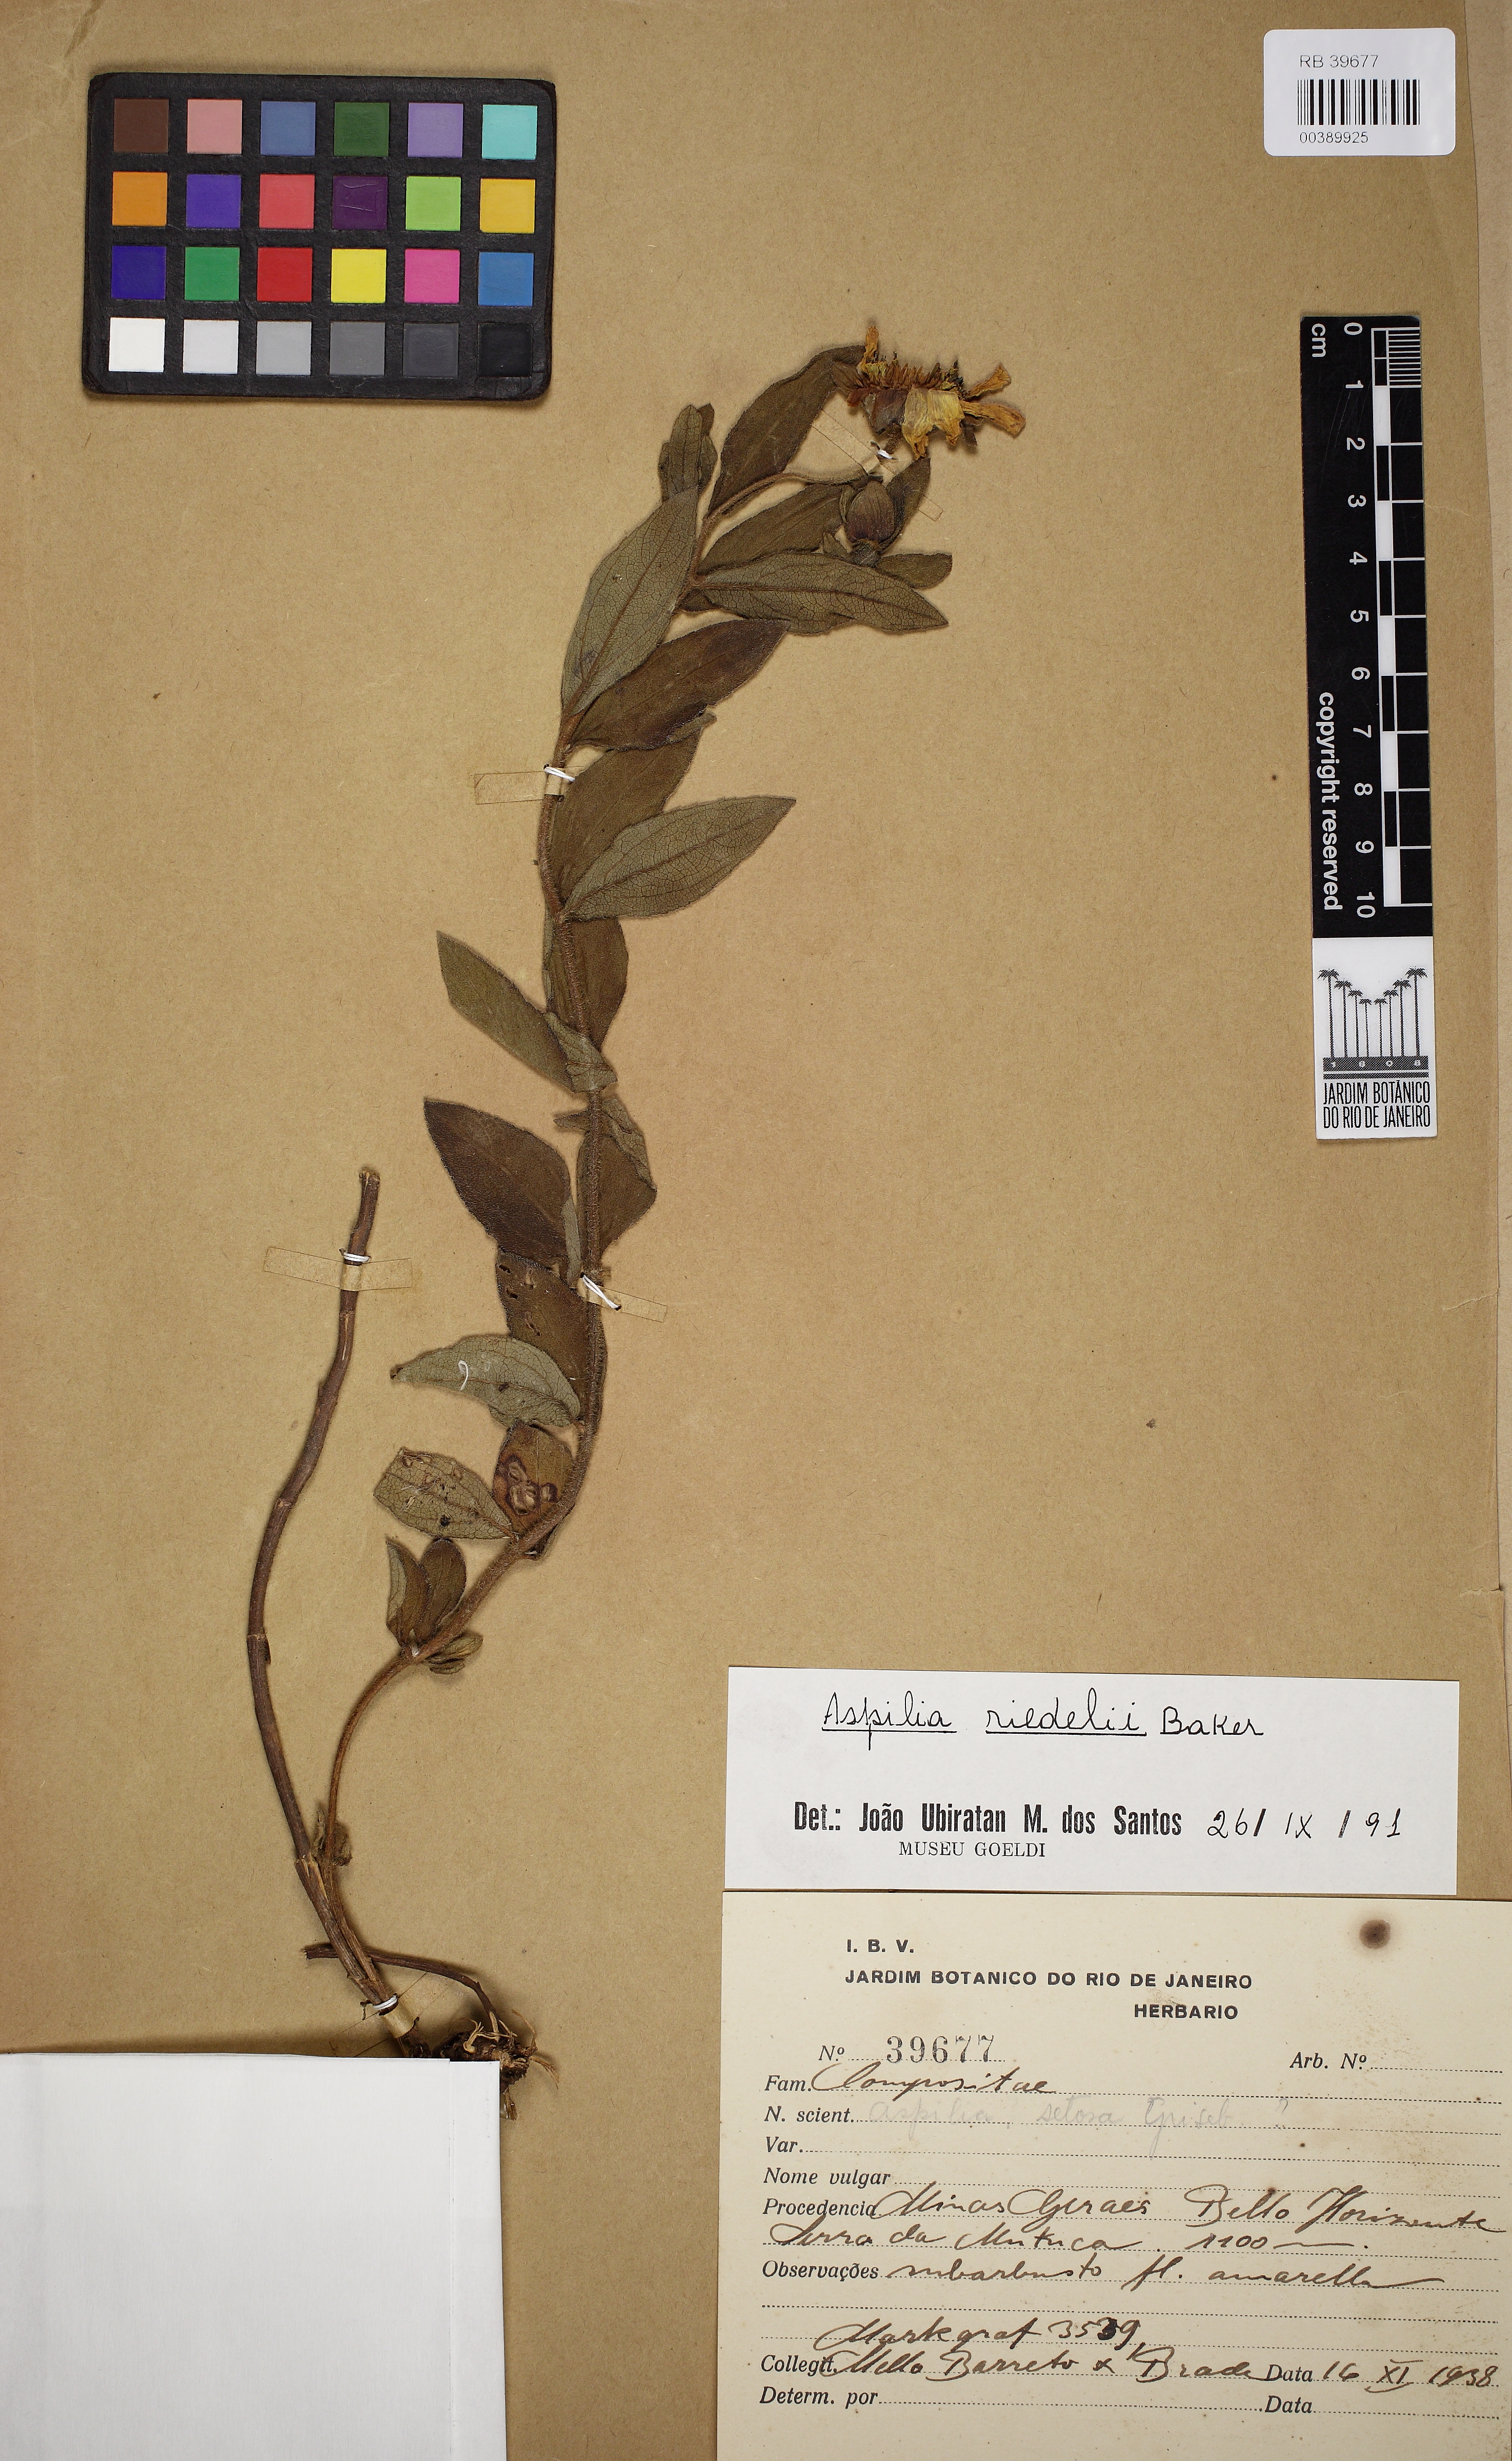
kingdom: Plantae
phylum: Tracheophyta
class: Magnoliopsida
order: Asterales
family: Asteraceae
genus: Wedelia
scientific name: Wedelia riedellii
